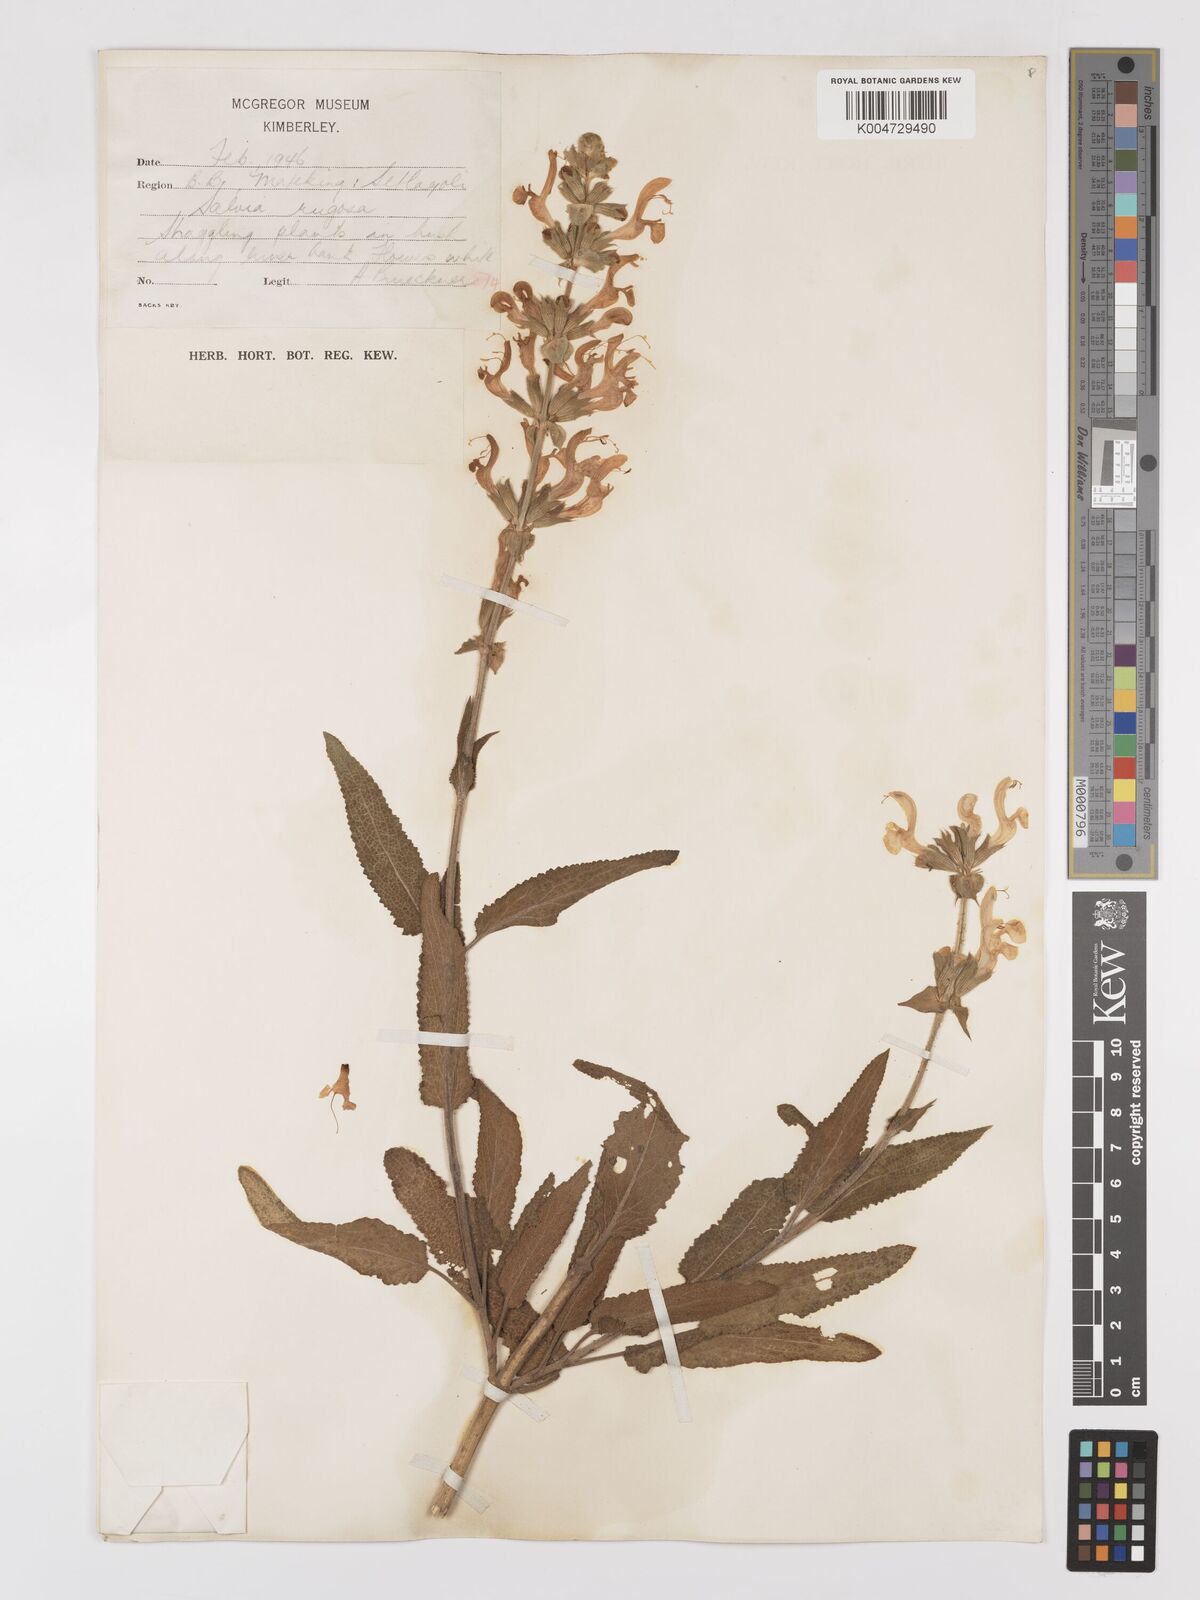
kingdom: Plantae
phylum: Tracheophyta
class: Magnoliopsida
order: Lamiales
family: Lamiaceae
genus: Salvia
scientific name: Salvia
